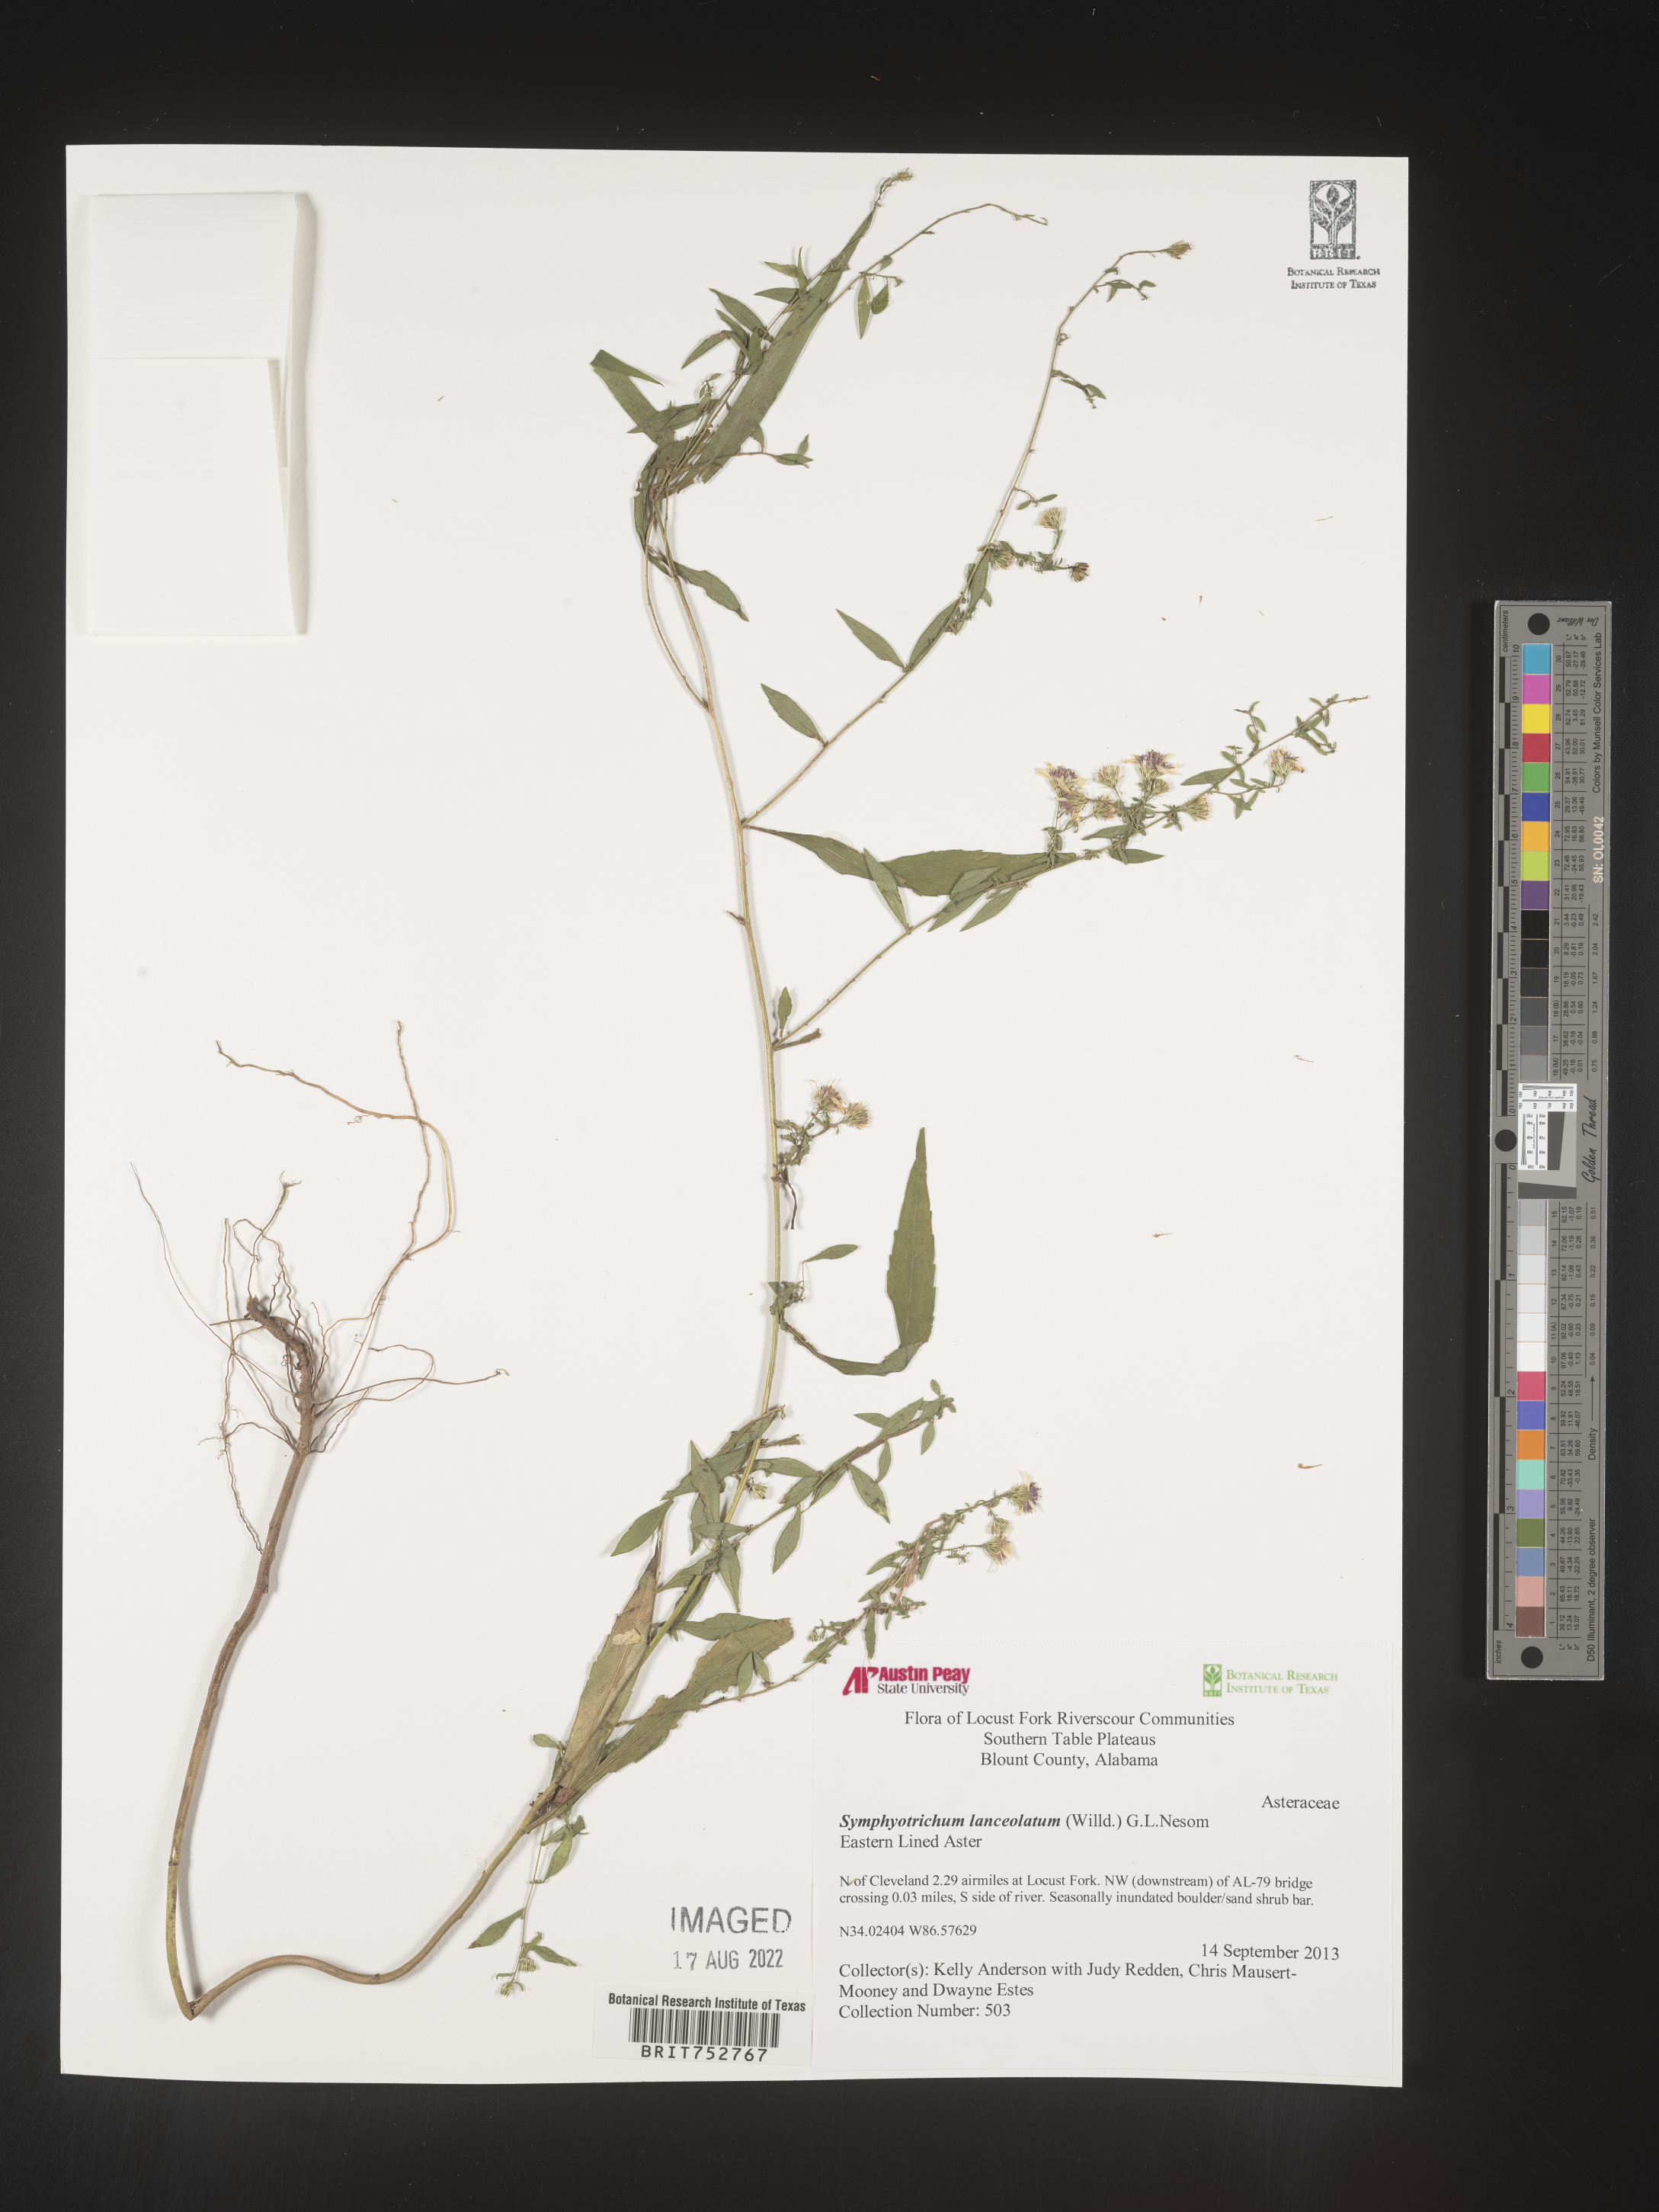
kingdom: Plantae
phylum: Tracheophyta
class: Magnoliopsida
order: Asterales
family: Asteraceae
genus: Symphyotrichum
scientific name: Symphyotrichum lanceolatum
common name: Panicled aster
